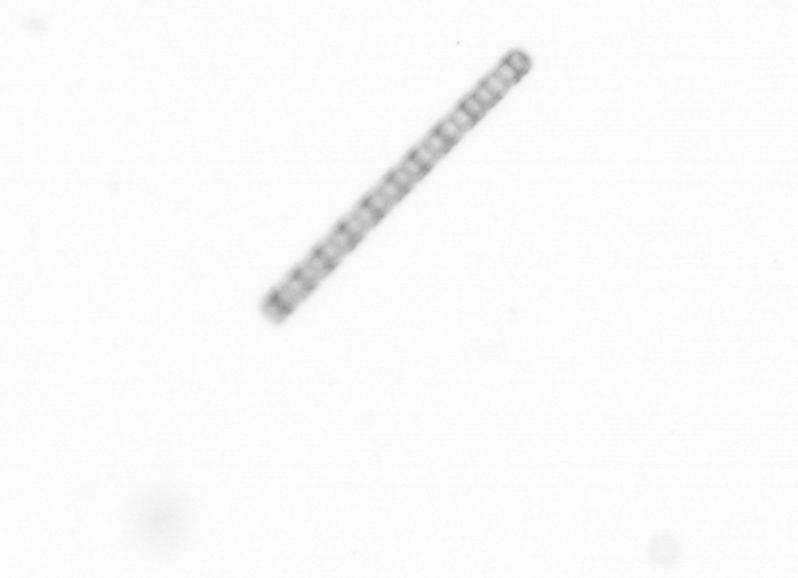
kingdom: Chromista
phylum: Ochrophyta
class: Bacillariophyceae
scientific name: Bacillariophyceae
